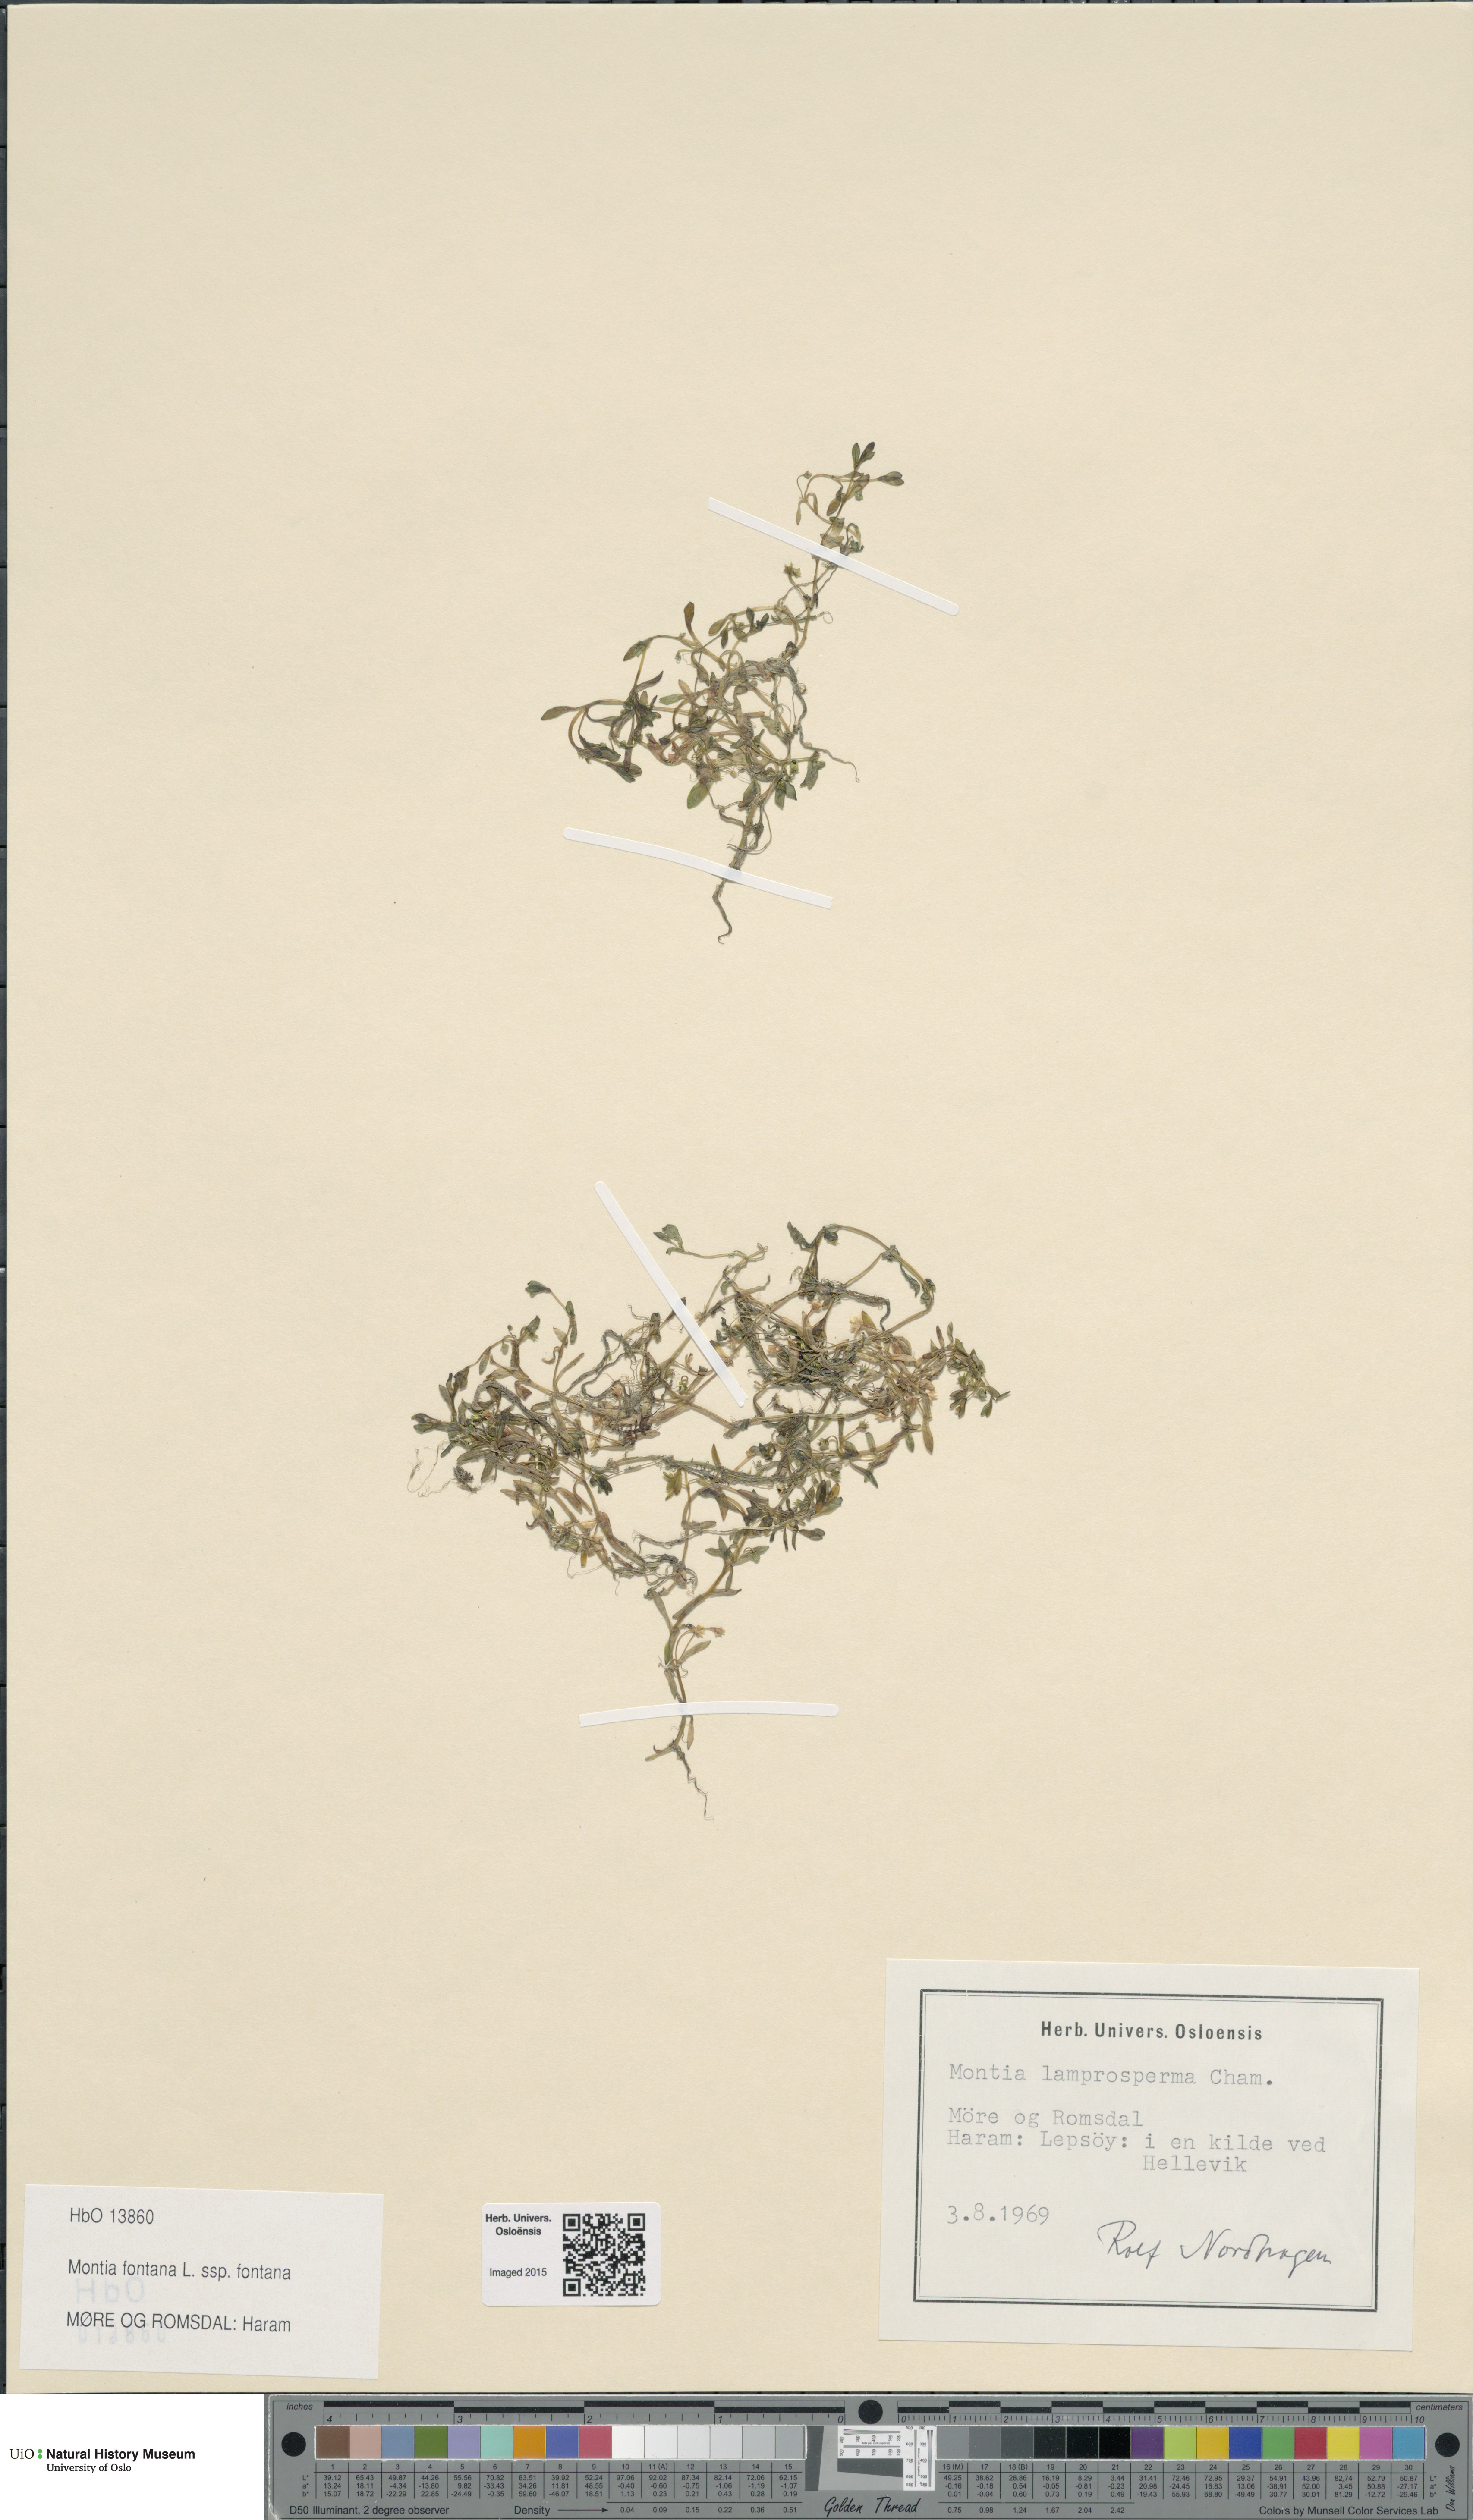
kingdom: Plantae
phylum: Tracheophyta
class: Magnoliopsida
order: Caryophyllales
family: Montiaceae
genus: Montia
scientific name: Montia fontana
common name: Blinks
